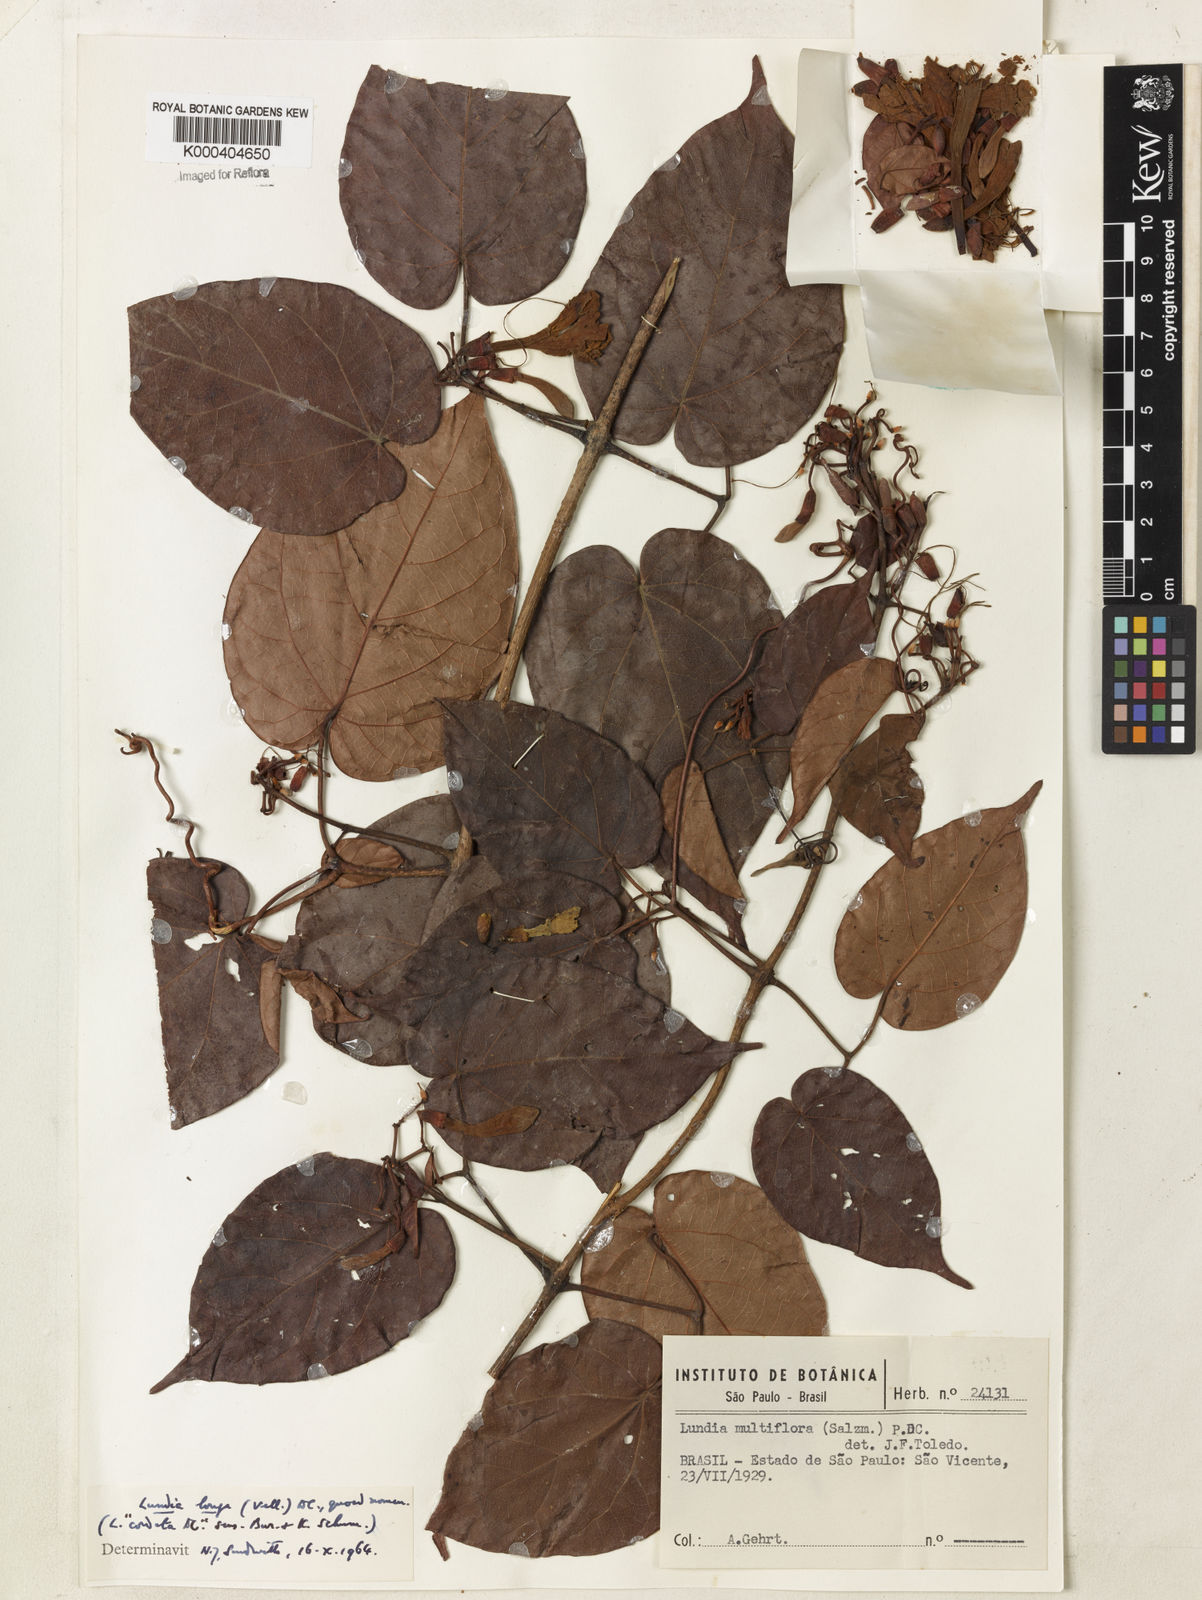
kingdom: Plantae
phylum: Tracheophyta
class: Magnoliopsida
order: Lamiales
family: Bignoniaceae
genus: Lundia
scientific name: Lundia longa
